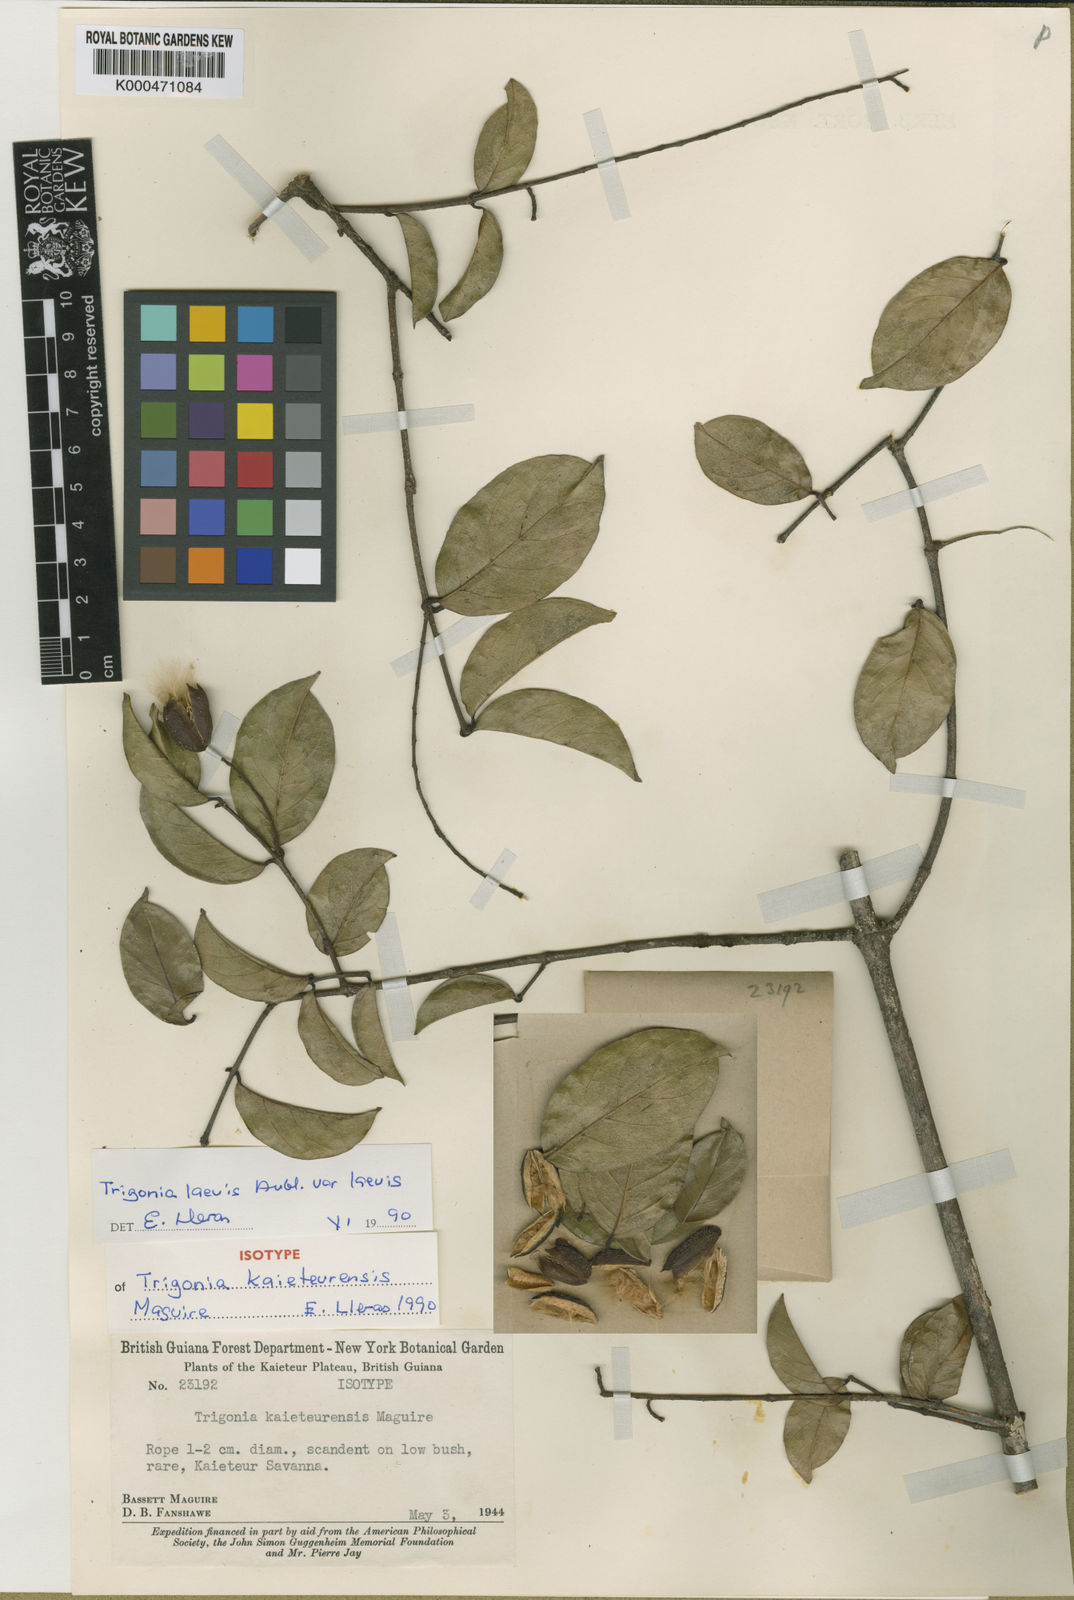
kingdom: Plantae
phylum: Tracheophyta
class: Magnoliopsida
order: Malpighiales
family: Trigoniaceae
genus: Trigonia
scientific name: Trigonia
